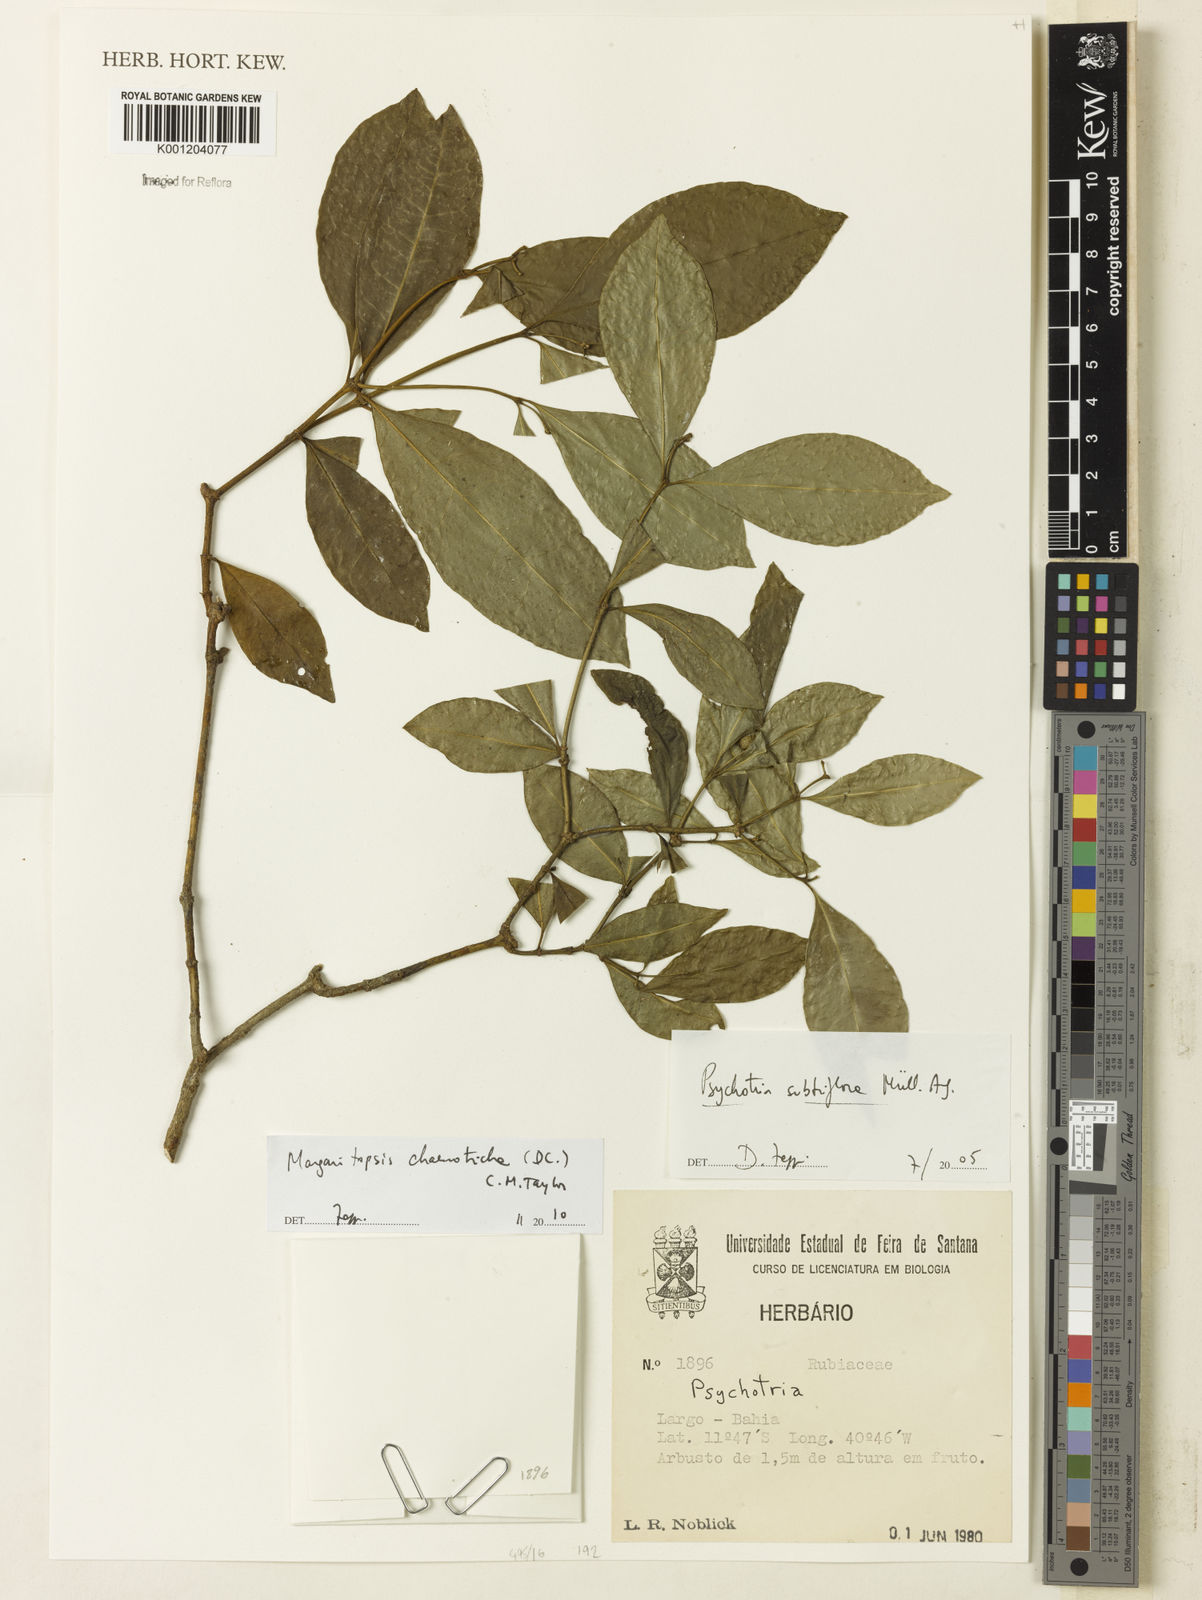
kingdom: Plantae
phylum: Tracheophyta
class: Magnoliopsida
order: Gentianales
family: Rubiaceae
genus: Eumachia
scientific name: Eumachia chaenotricha
